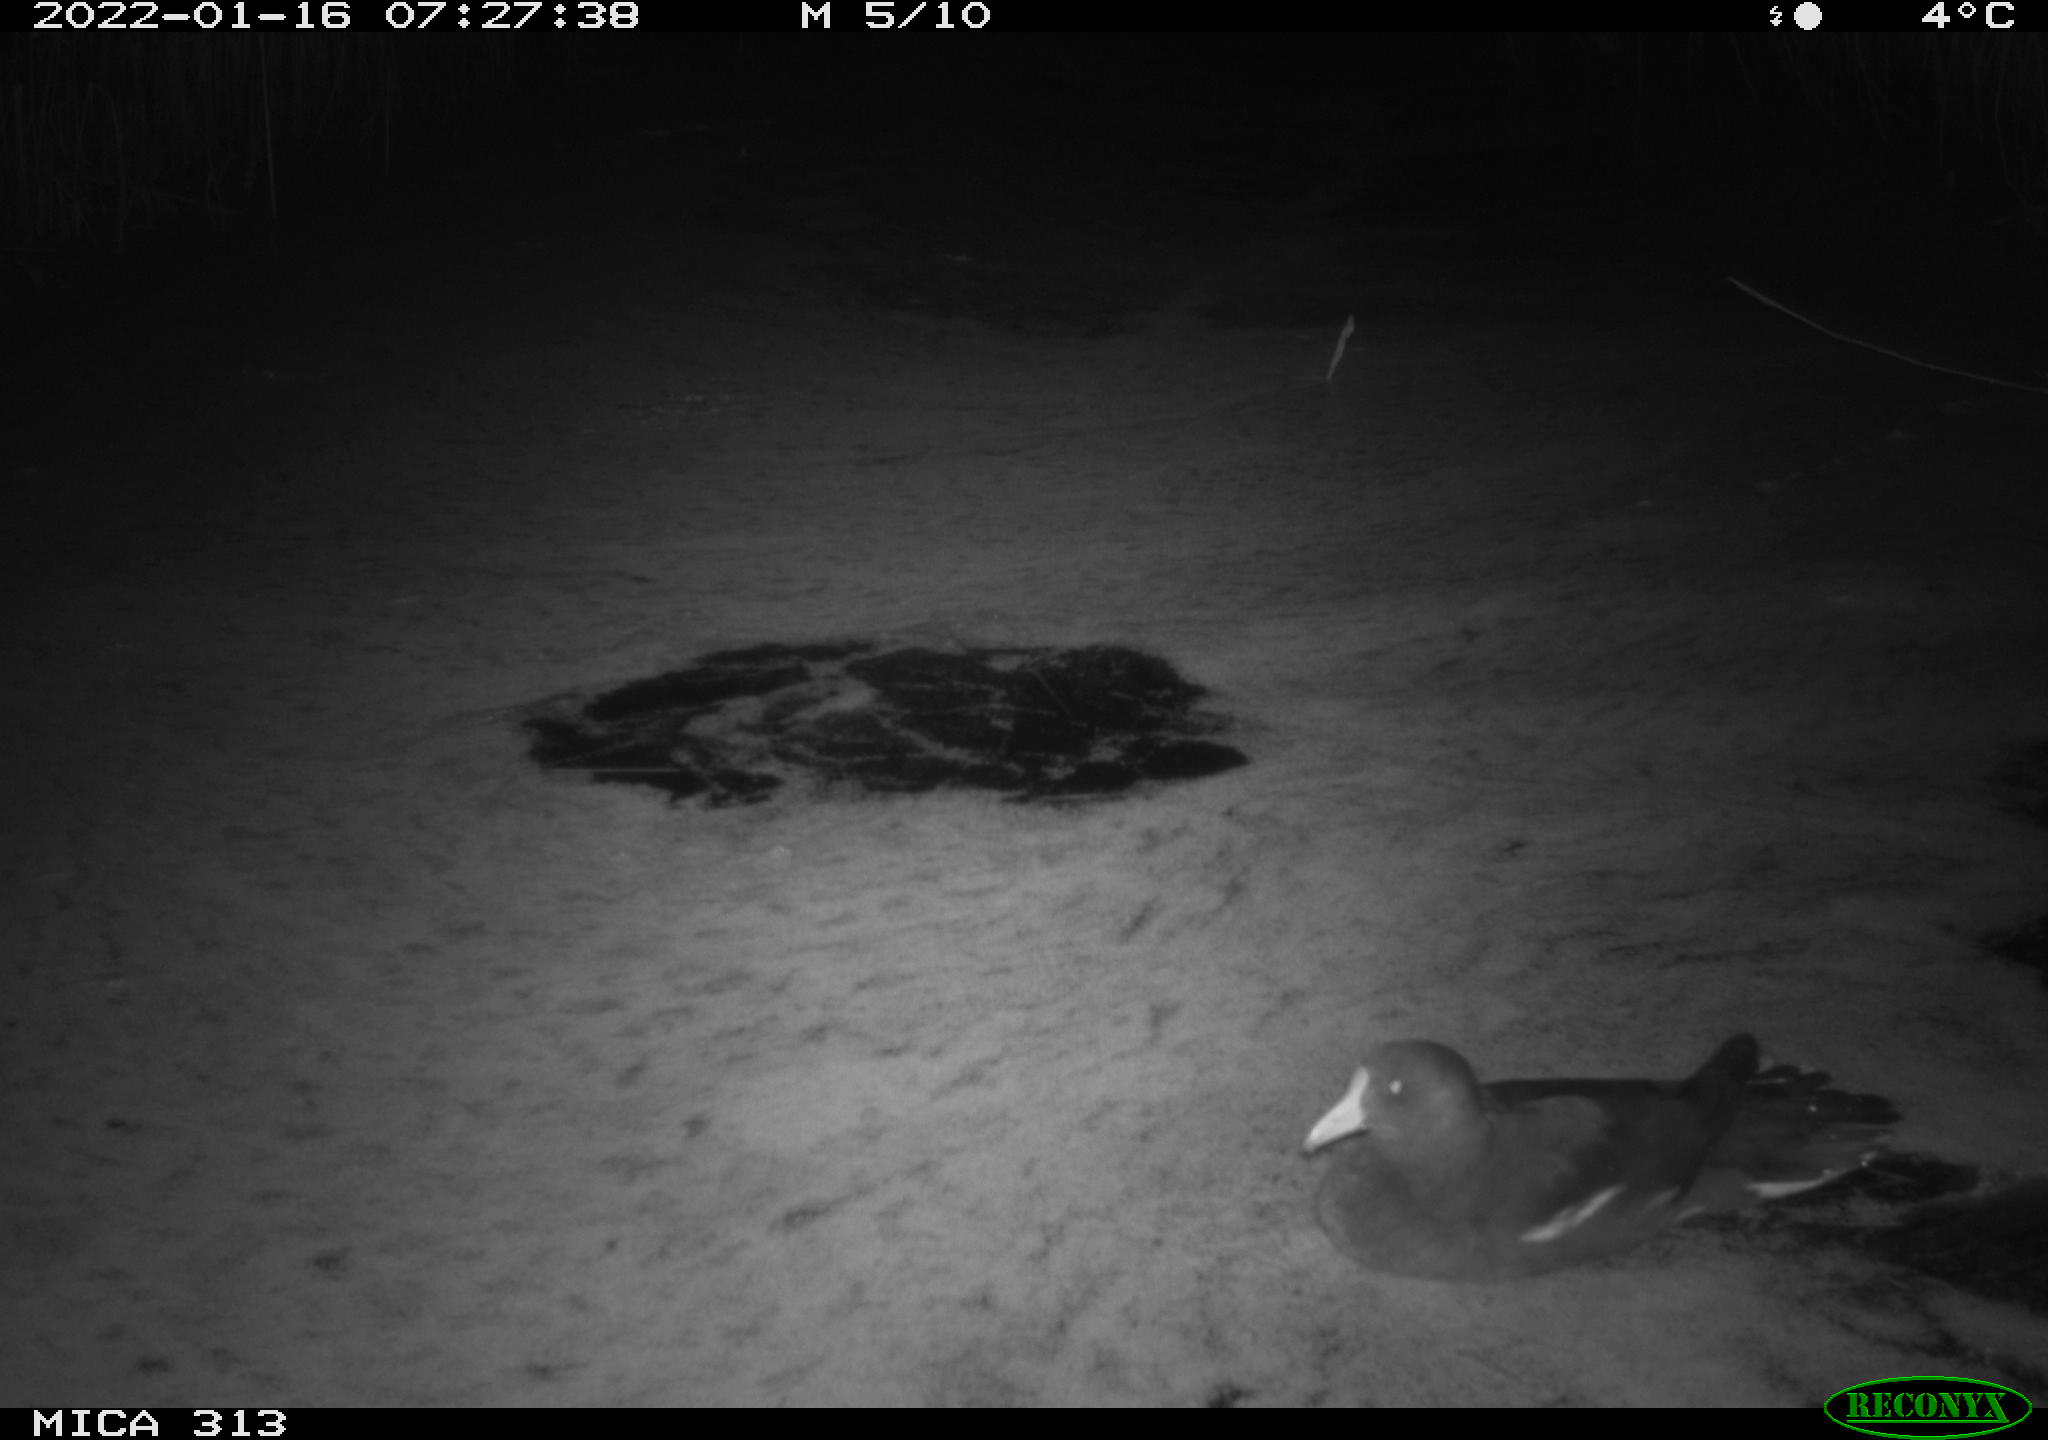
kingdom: Animalia
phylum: Chordata
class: Aves
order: Gruiformes
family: Rallidae
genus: Gallinula
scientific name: Gallinula chloropus
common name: Common moorhen
